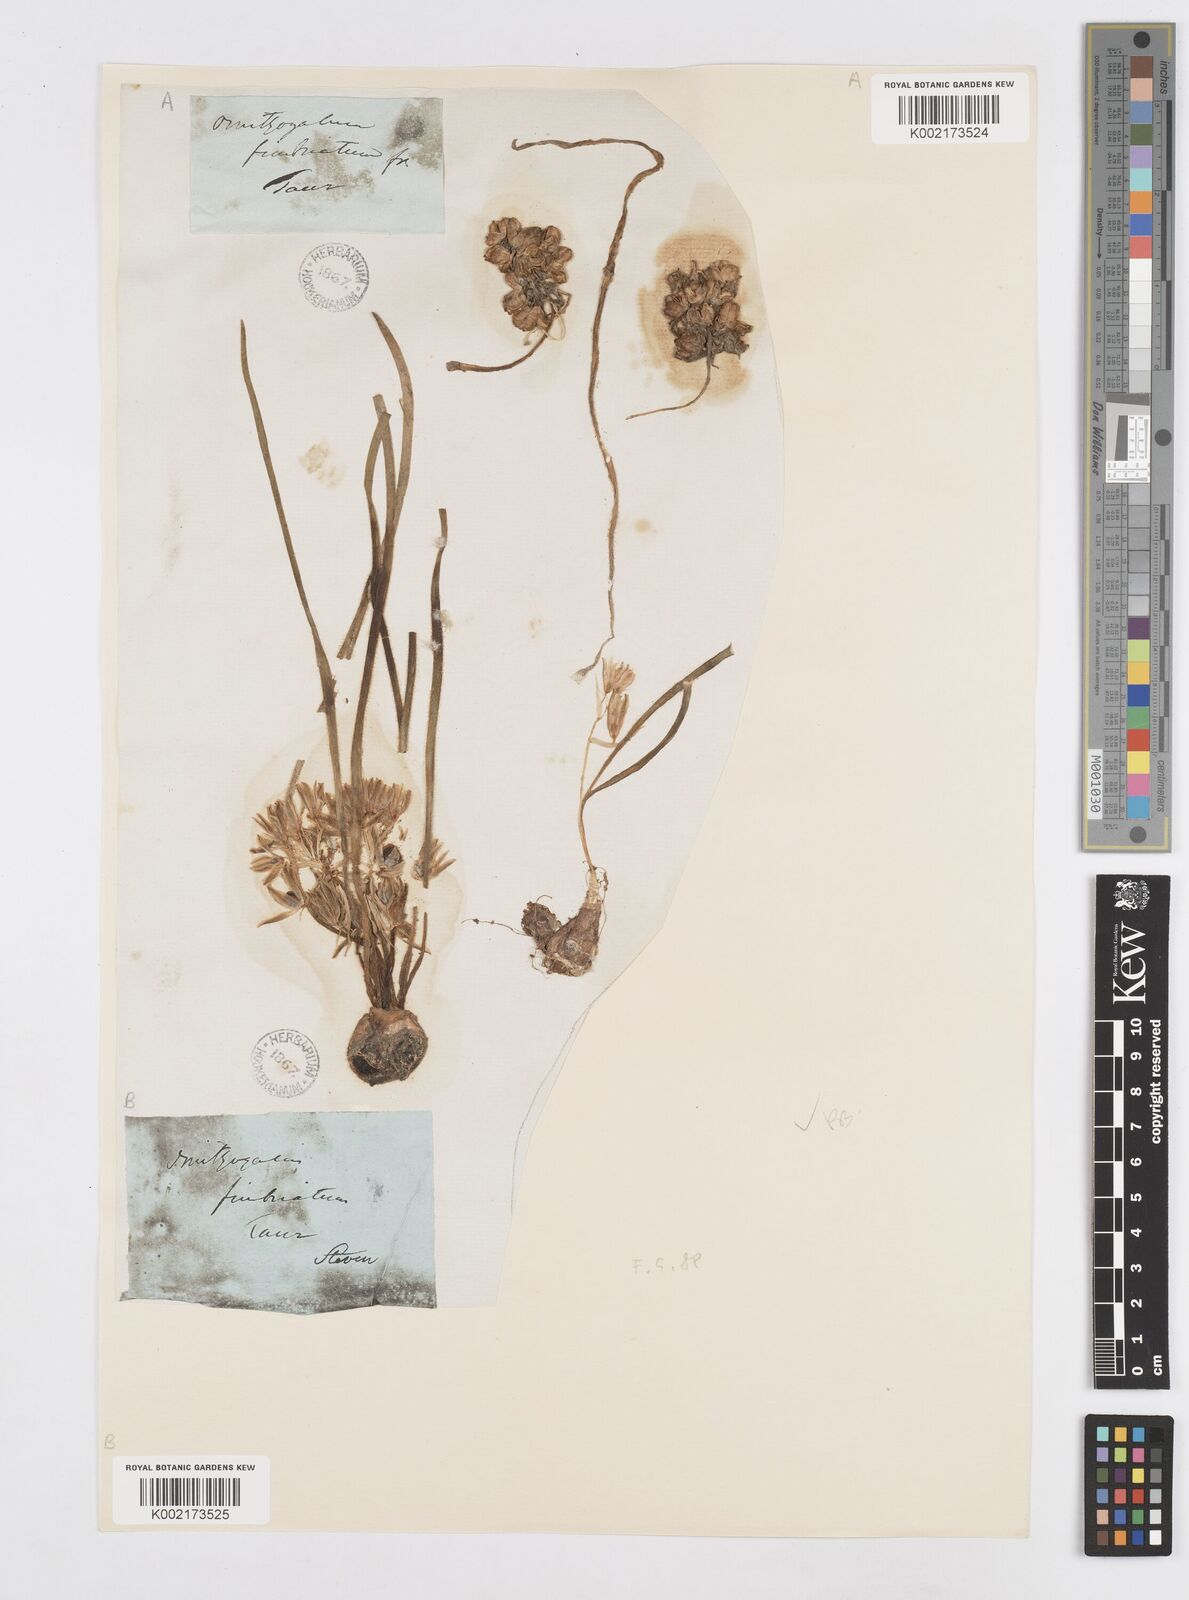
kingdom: Plantae
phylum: Tracheophyta
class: Liliopsida
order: Asparagales
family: Asparagaceae
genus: Ornithogalum
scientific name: Ornithogalum fimbriatum
